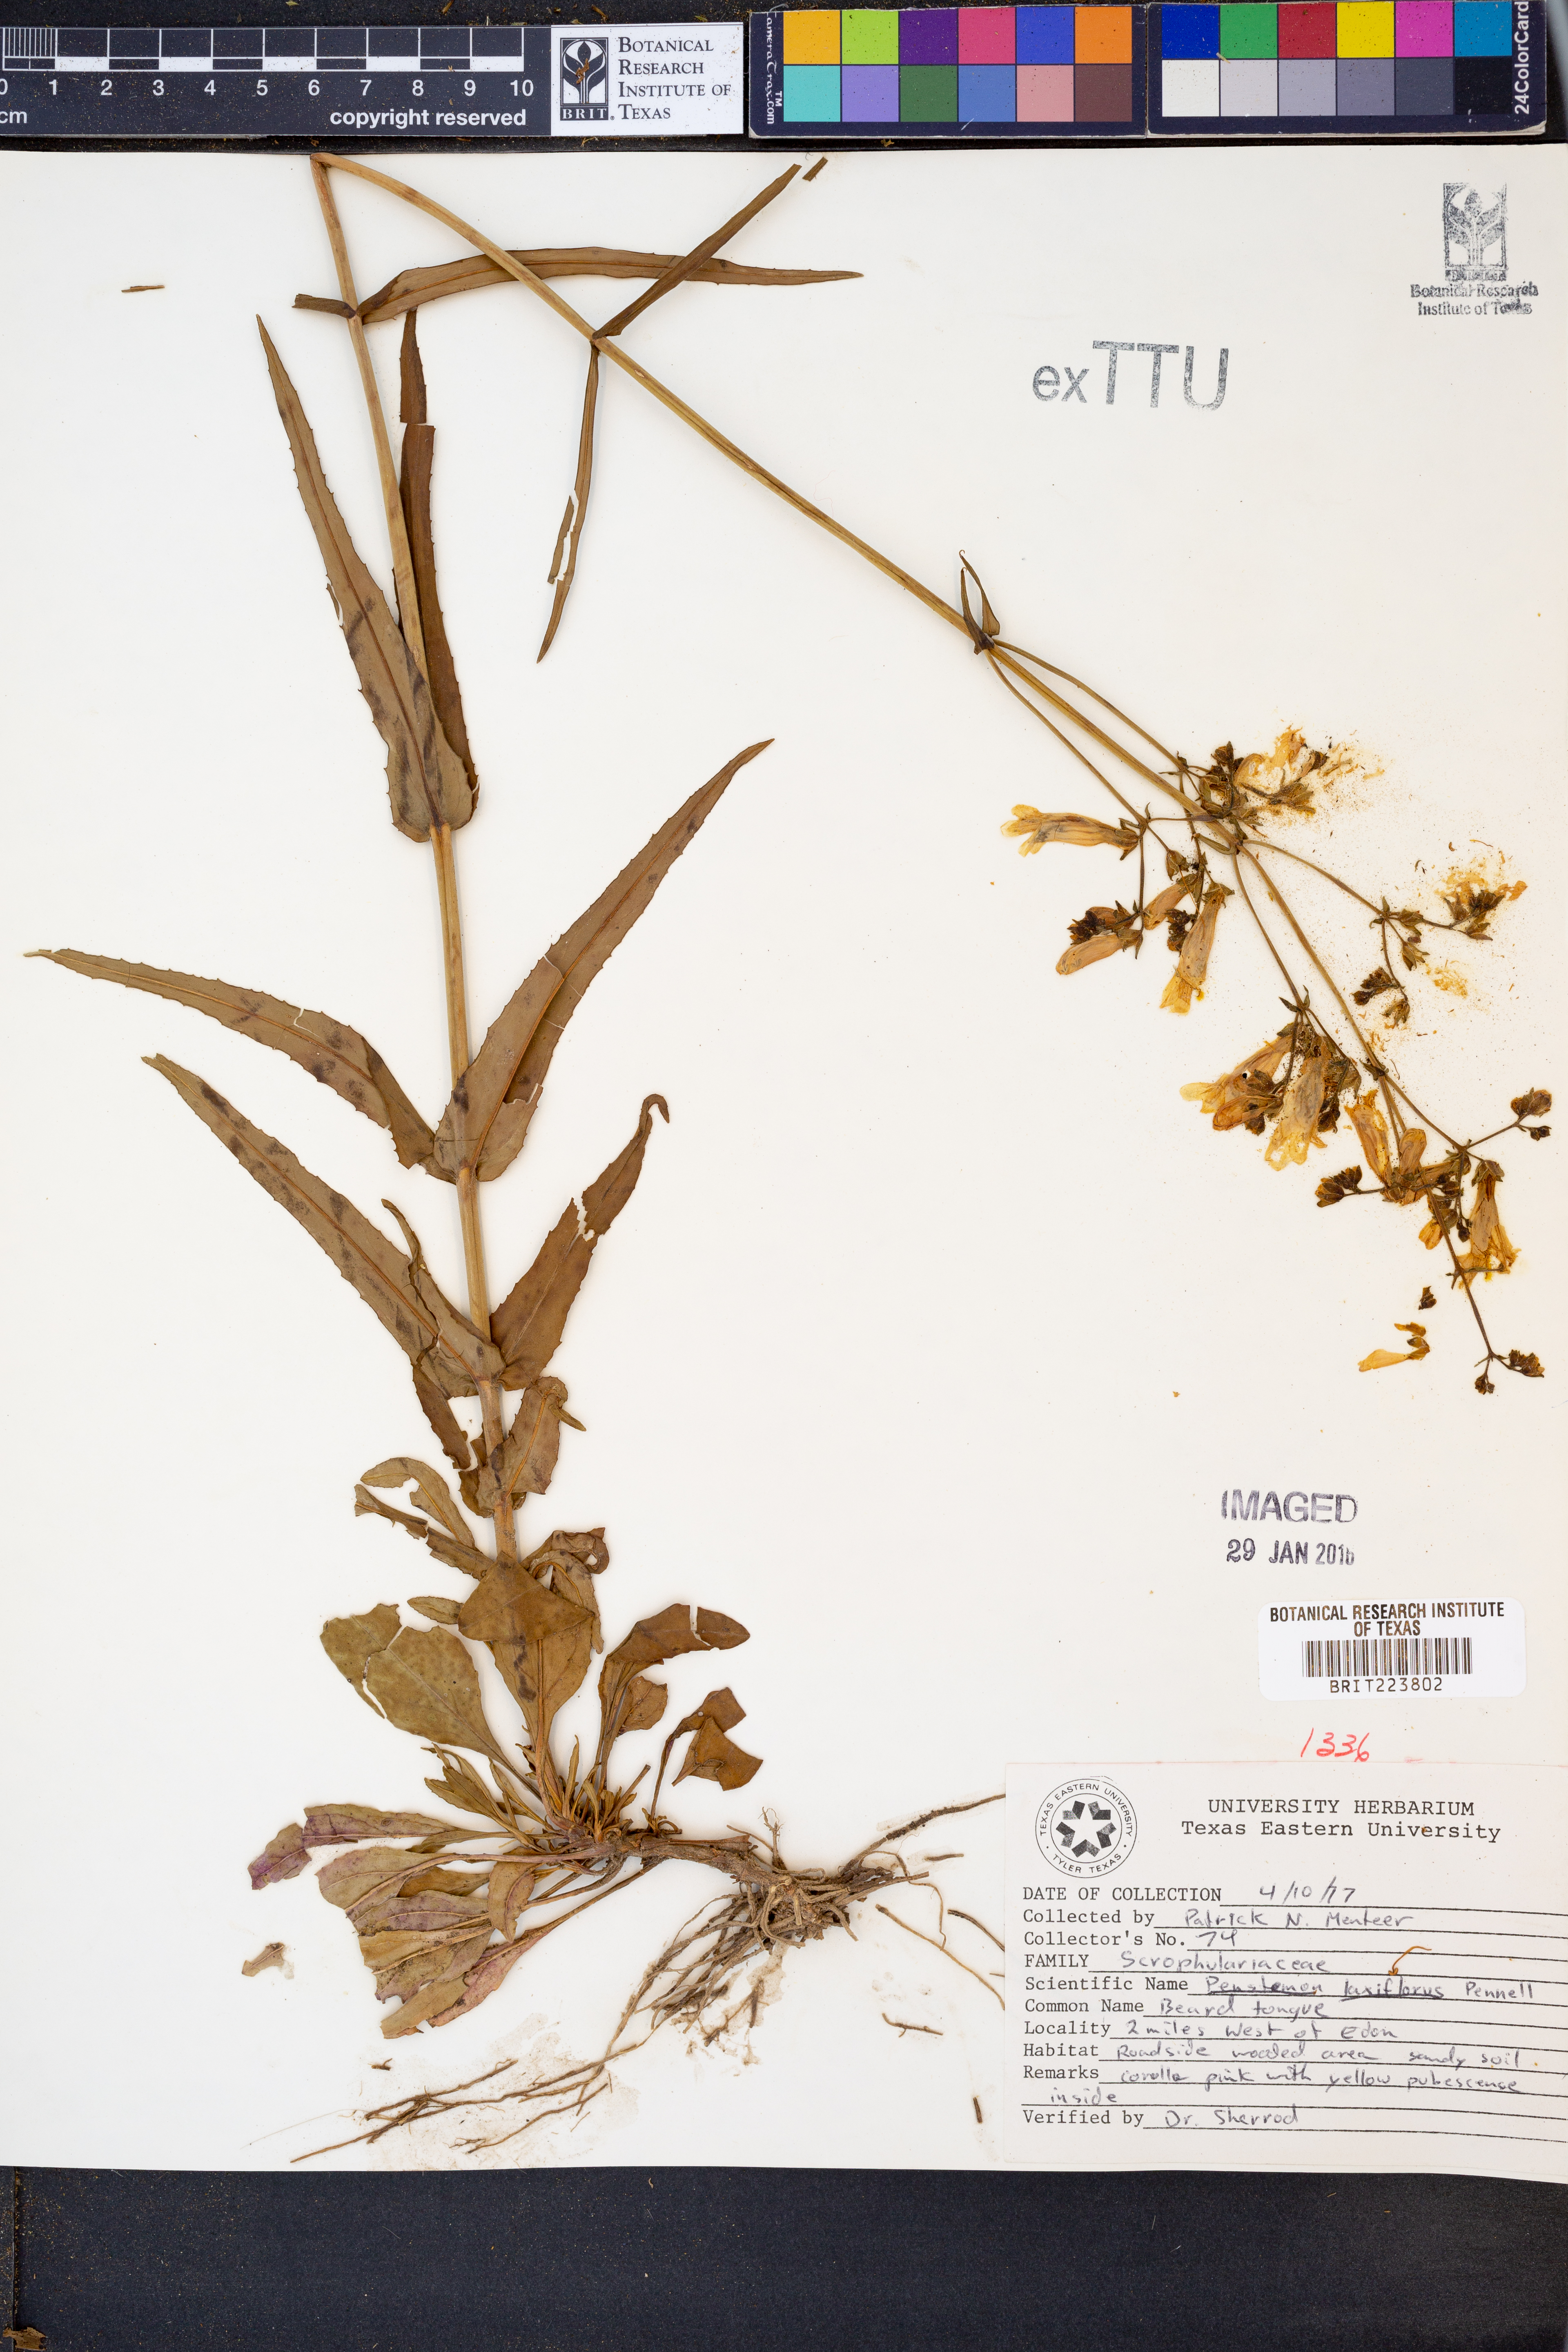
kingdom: Plantae
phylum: Tracheophyta
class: Magnoliopsida
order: Lamiales
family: Plantaginaceae
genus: Penstemon
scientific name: Penstemon laxiflorus
